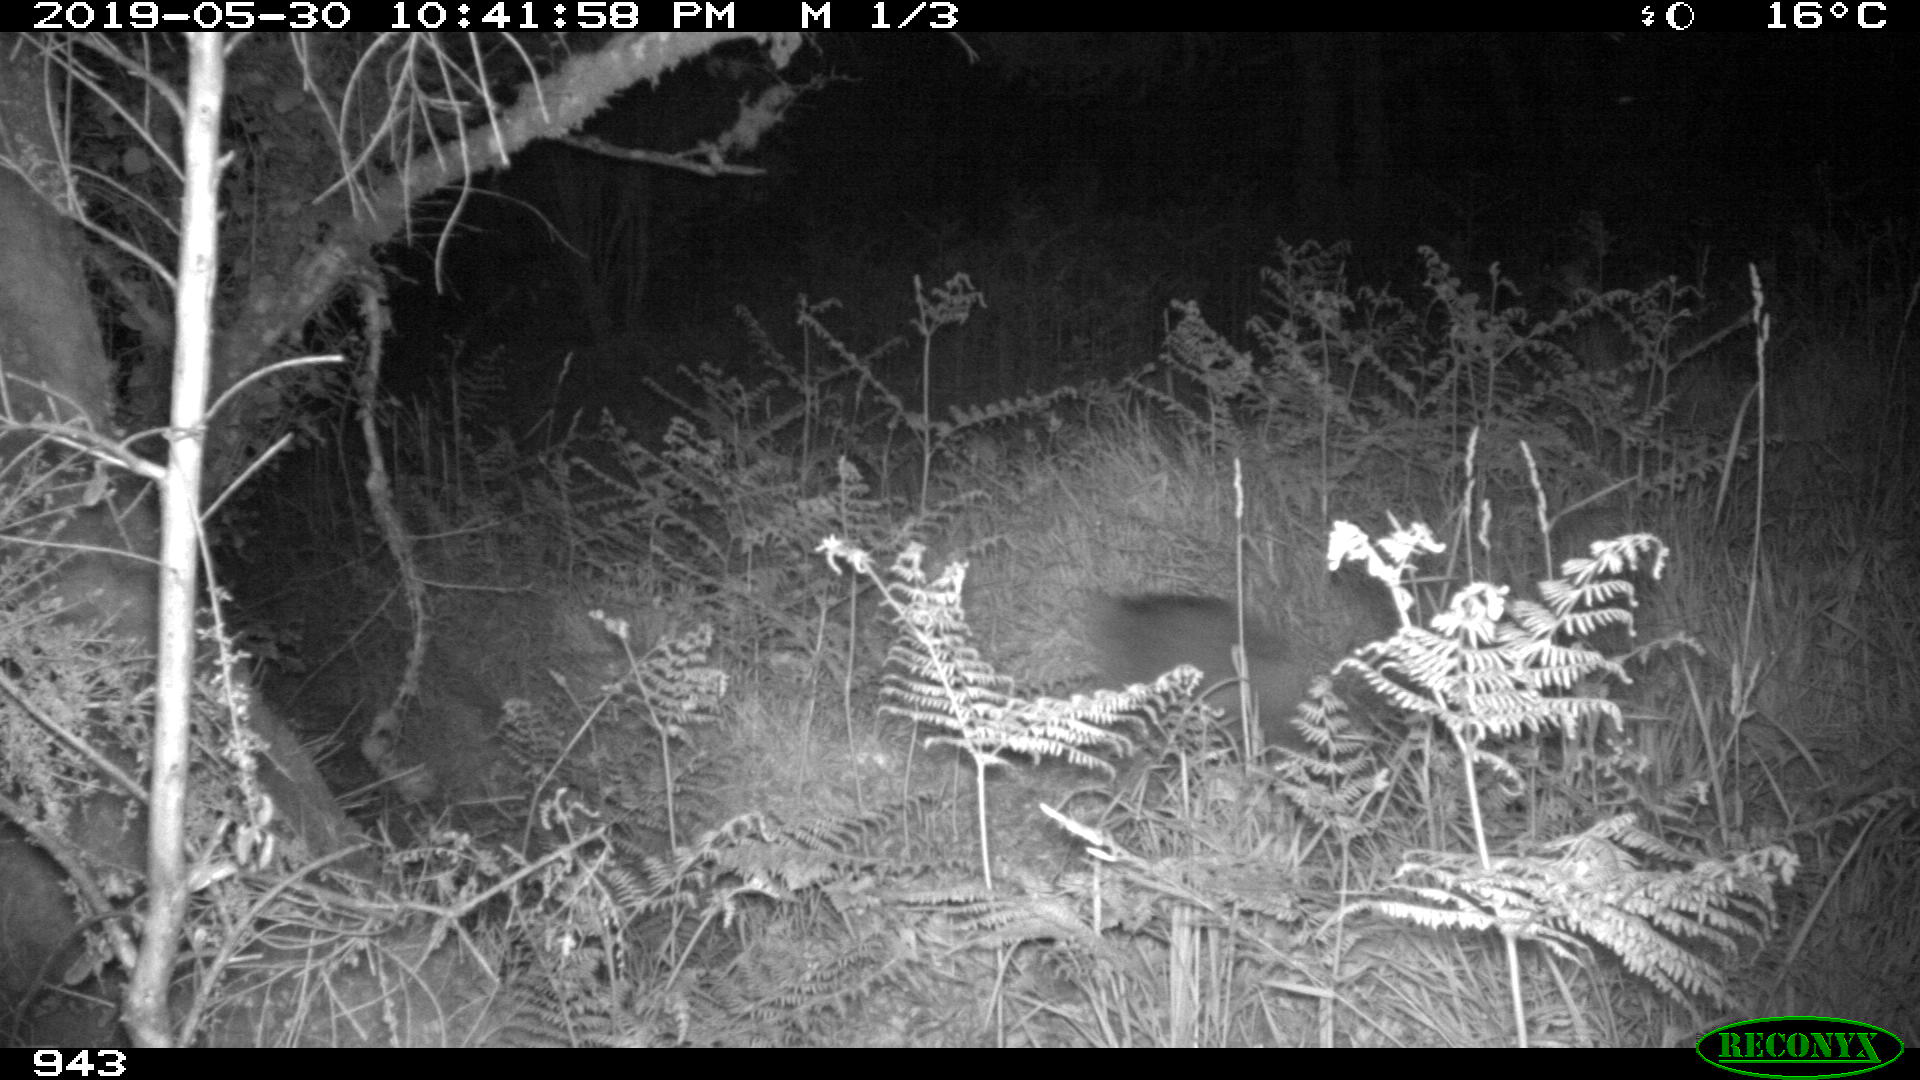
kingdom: Animalia
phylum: Chordata
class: Mammalia
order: Artiodactyla
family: Suidae
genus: Sus
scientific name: Sus scrofa
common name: Wild boar
